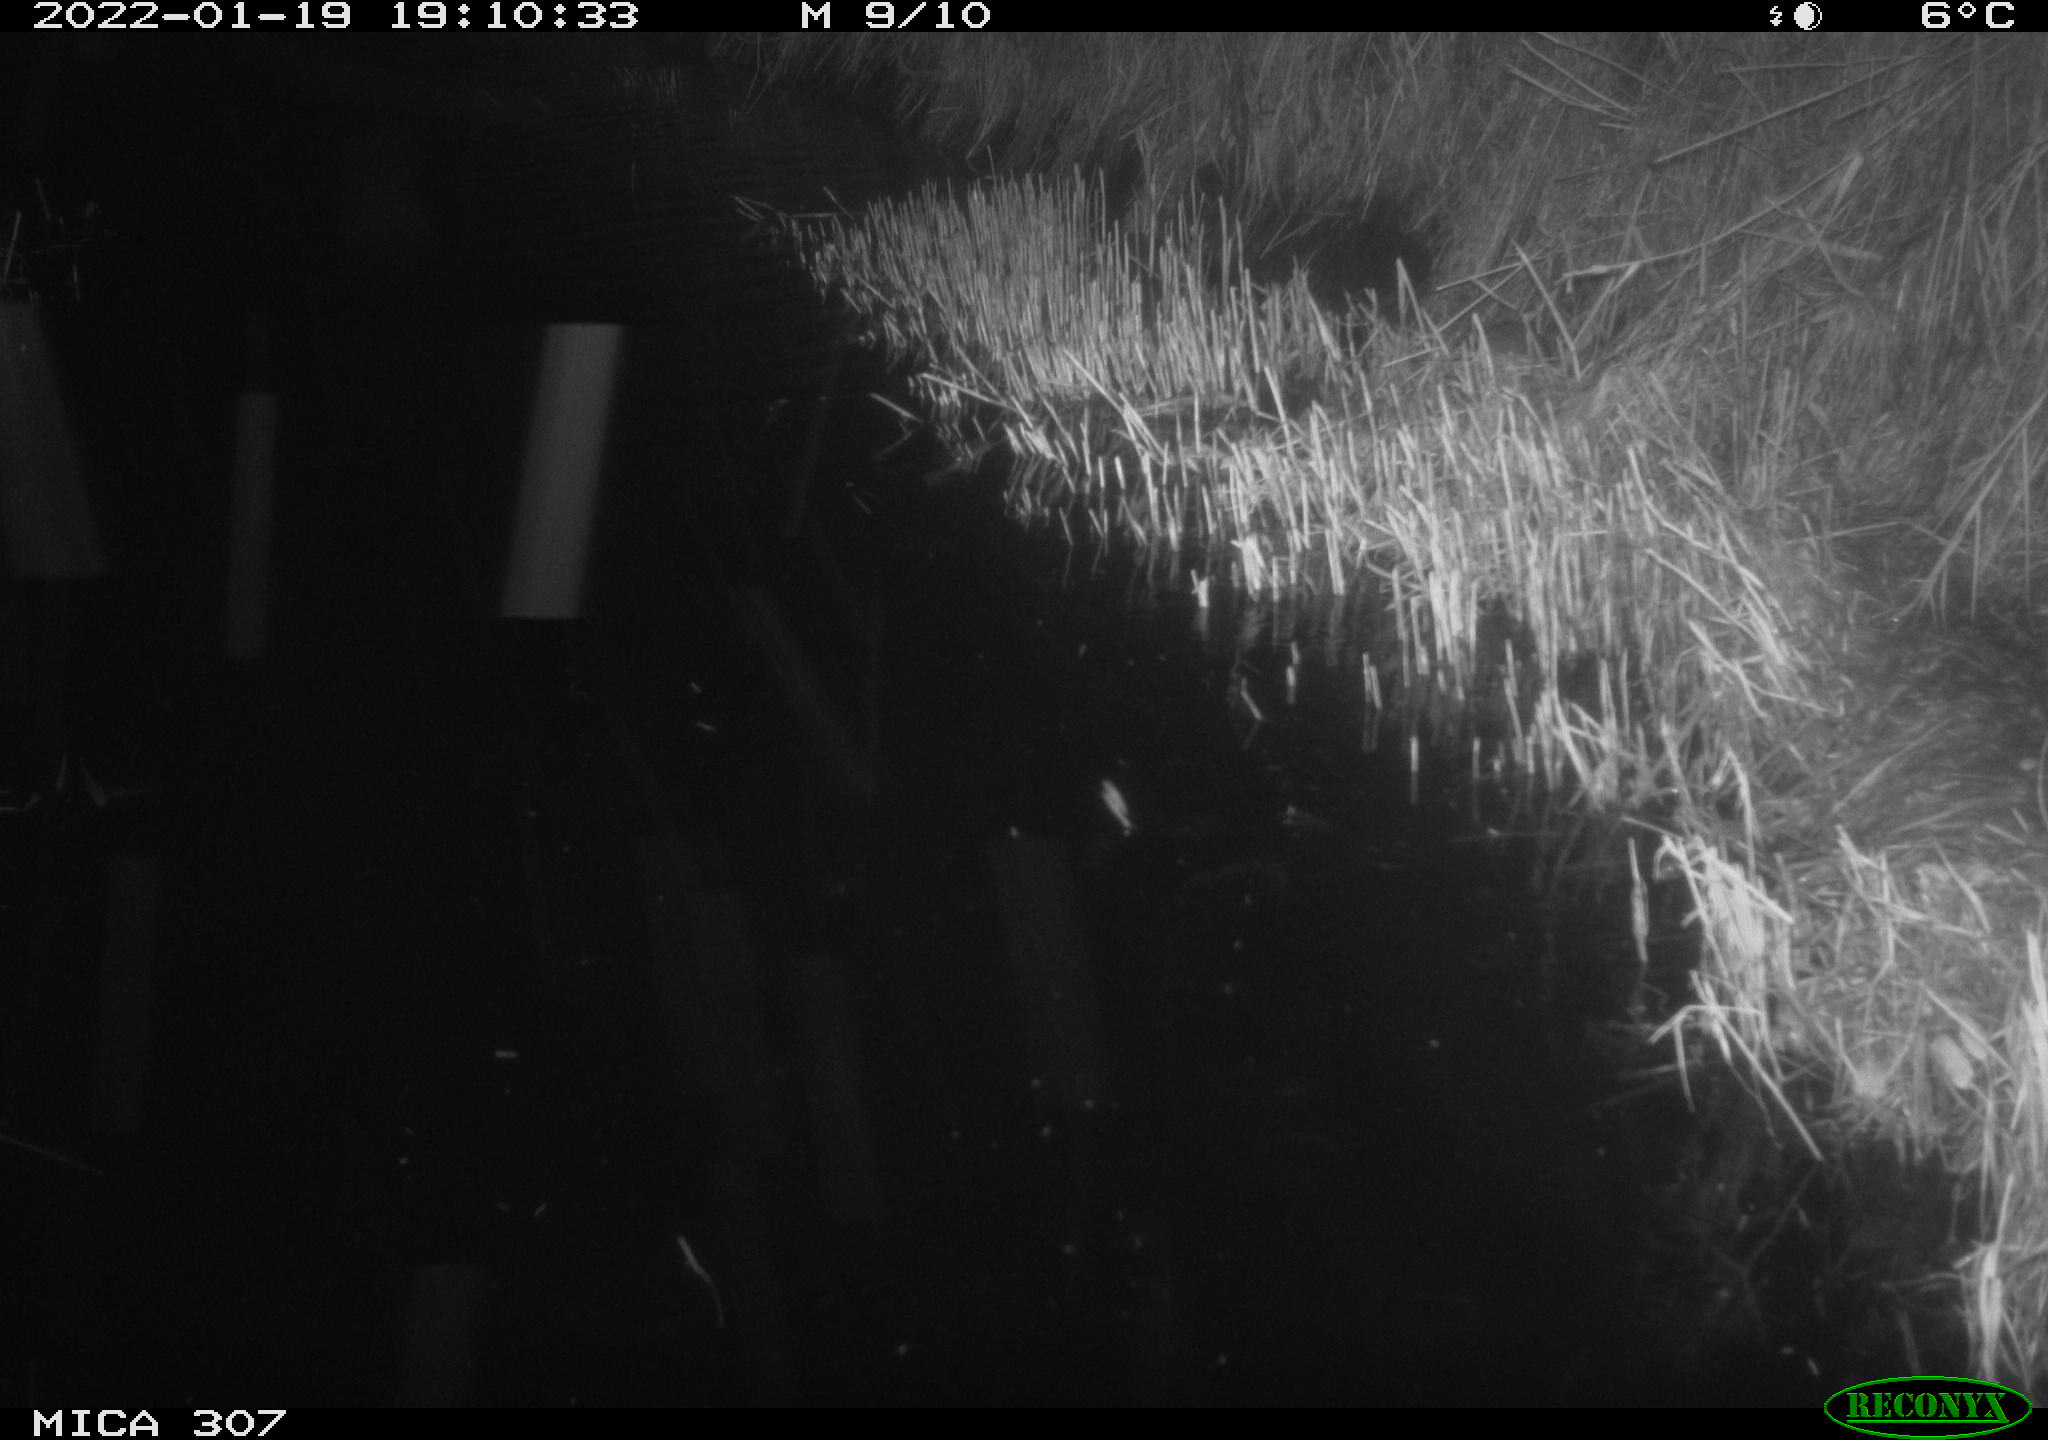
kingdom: Animalia
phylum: Chordata
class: Mammalia
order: Rodentia
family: Muridae
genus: Rattus
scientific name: Rattus norvegicus
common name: Brown rat
